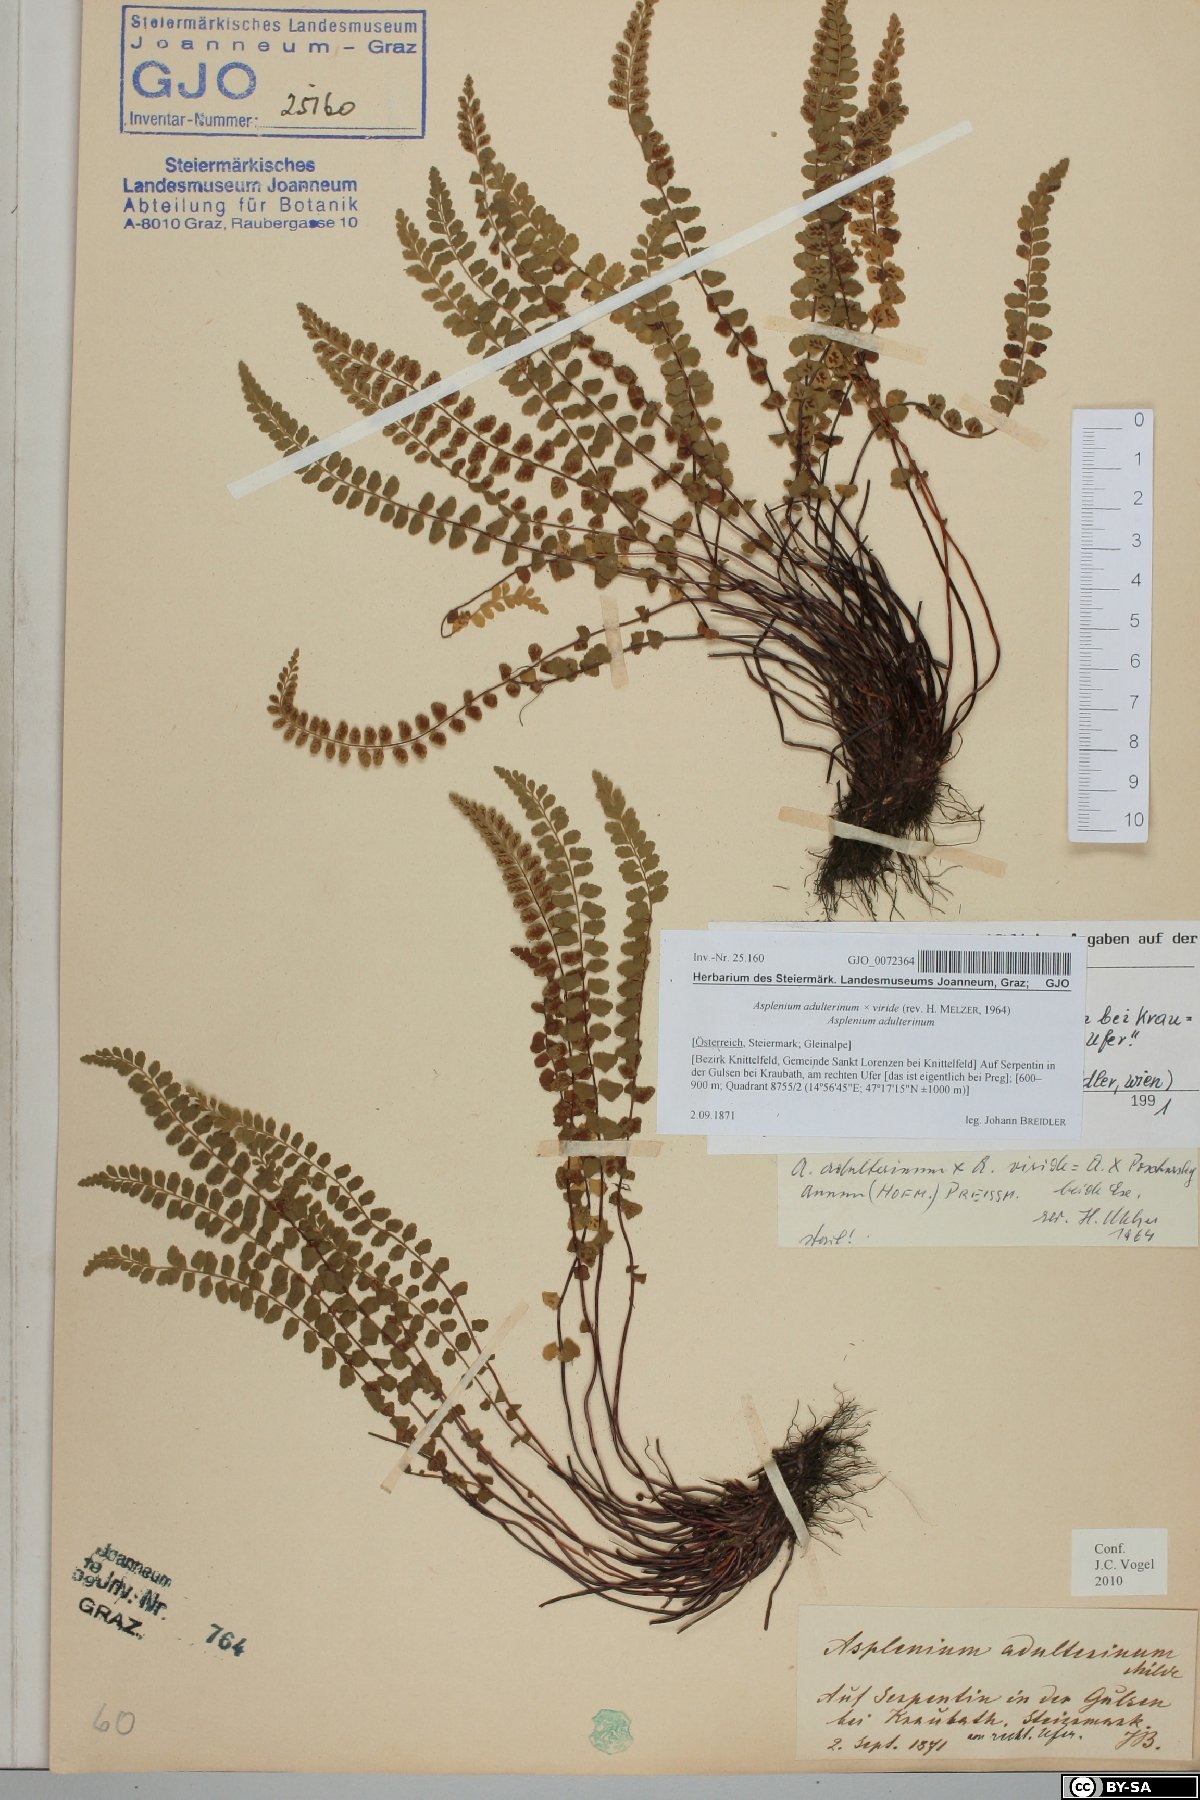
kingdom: Plantae
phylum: Tracheophyta
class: Polypodiopsida
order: Polypodiales
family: Aspleniaceae
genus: Asplenium
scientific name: Asplenium adulterinum
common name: Adulterated spleenwort
